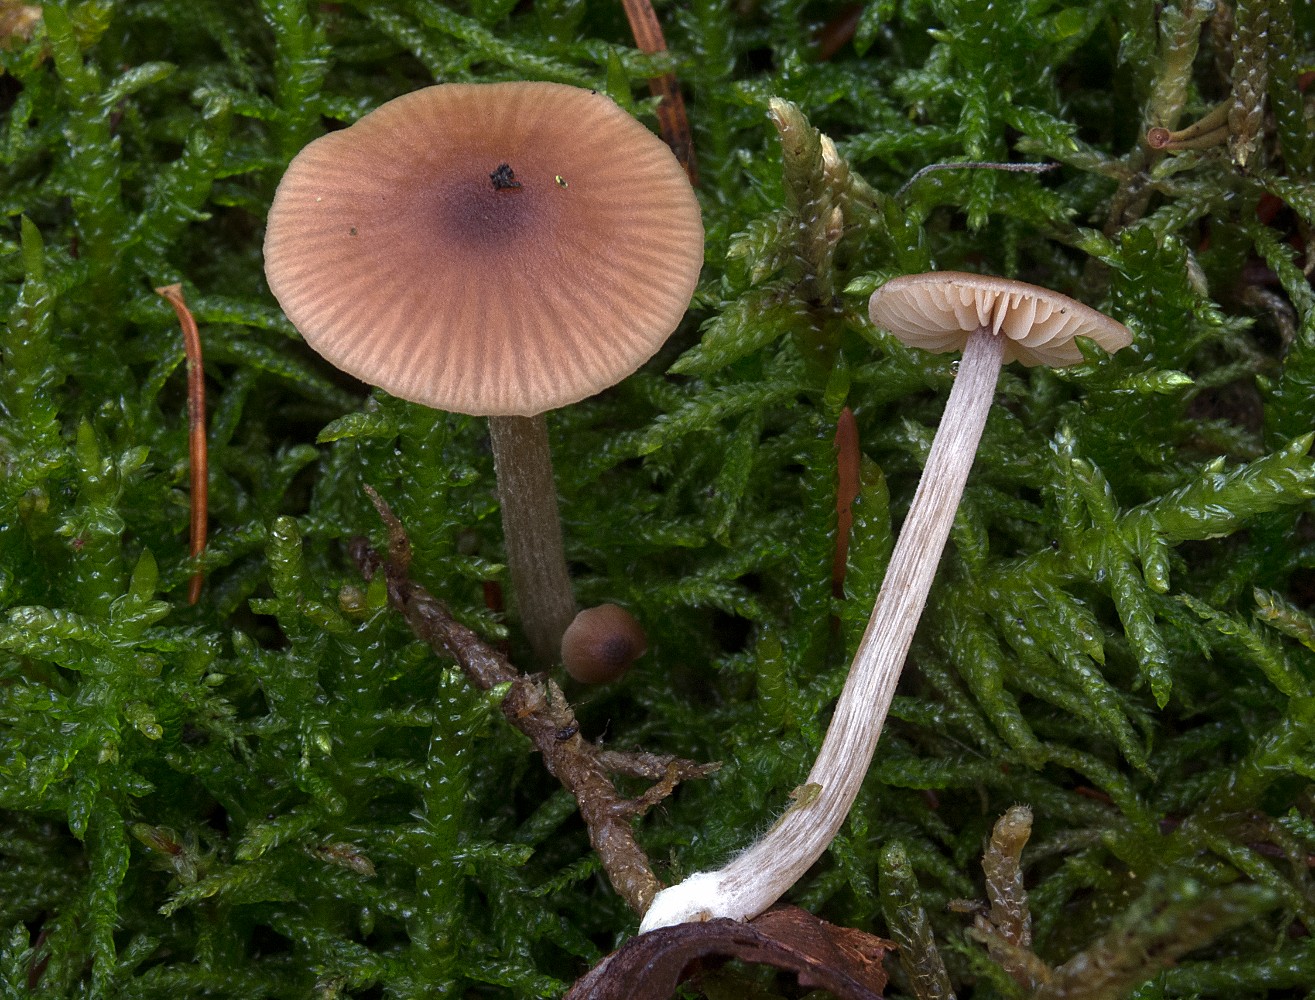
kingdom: Fungi
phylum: Basidiomycota
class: Agaricomycetes
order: Agaricales
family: Entolomataceae
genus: Entoloma
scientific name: Entoloma cetratum
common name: voks-rødblad
